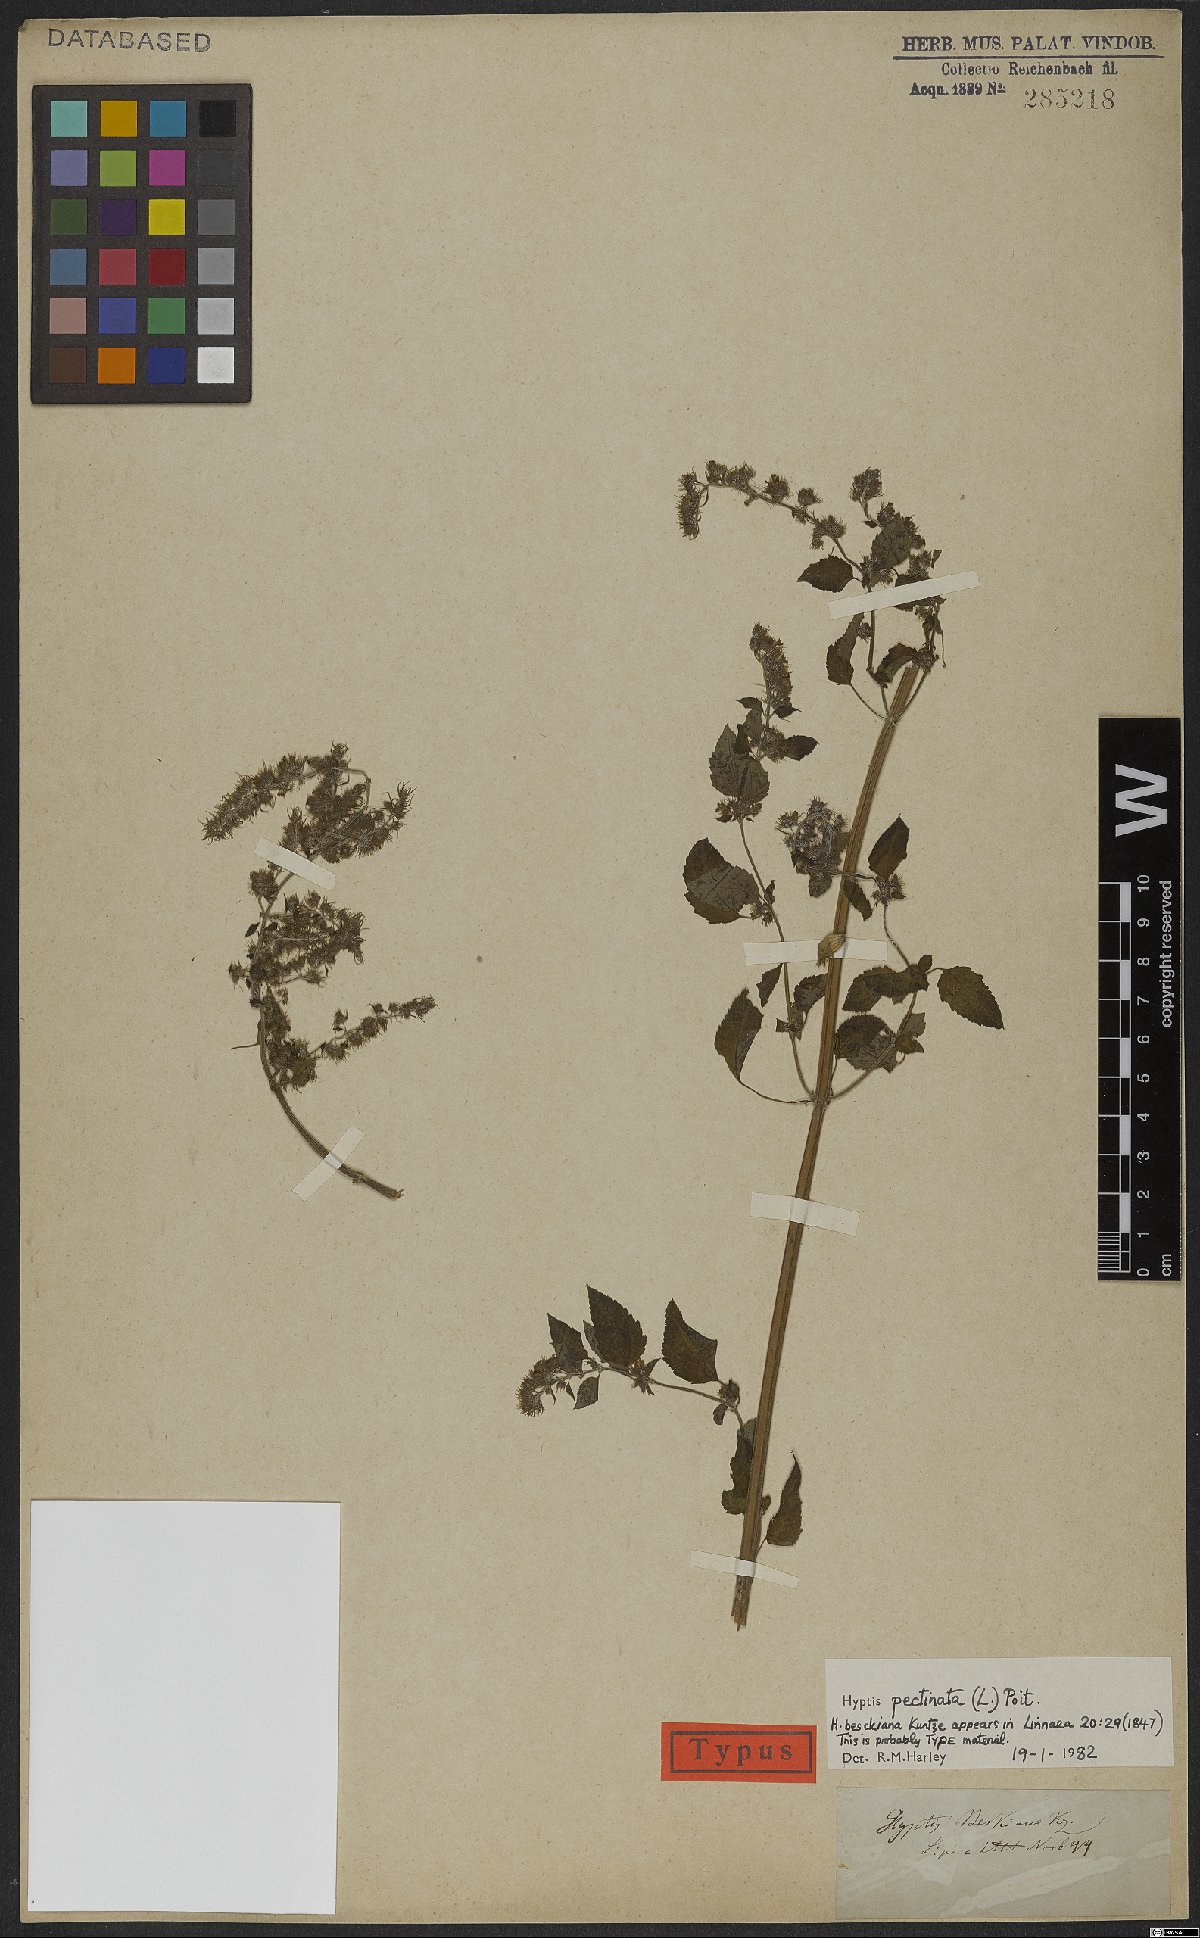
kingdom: Plantae
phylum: Tracheophyta
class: Magnoliopsida
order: Lamiales
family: Lamiaceae
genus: Mesosphaerum
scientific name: Mesosphaerum pectinatum
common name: Comb hyptis
